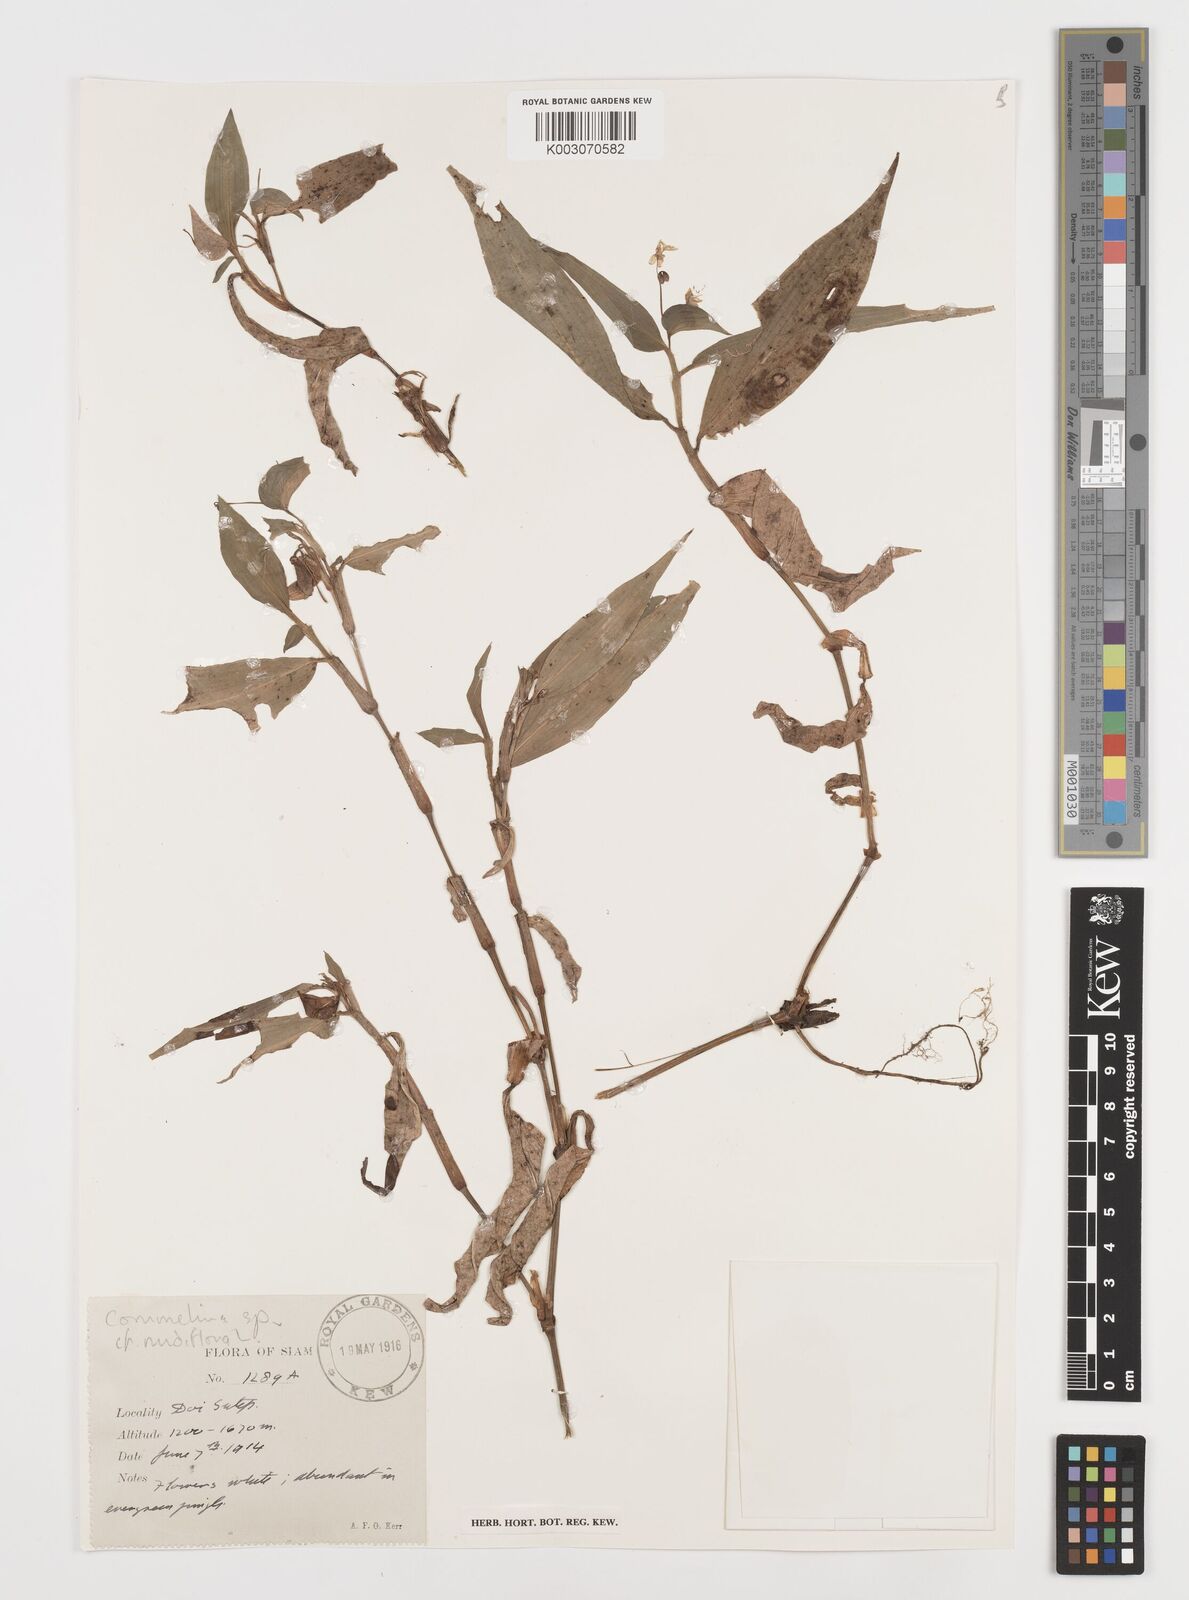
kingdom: Plantae
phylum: Tracheophyta
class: Liliopsida
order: Commelinales
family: Commelinaceae
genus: Commelina
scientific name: Commelina clavata
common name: Willow leaved dayflower
